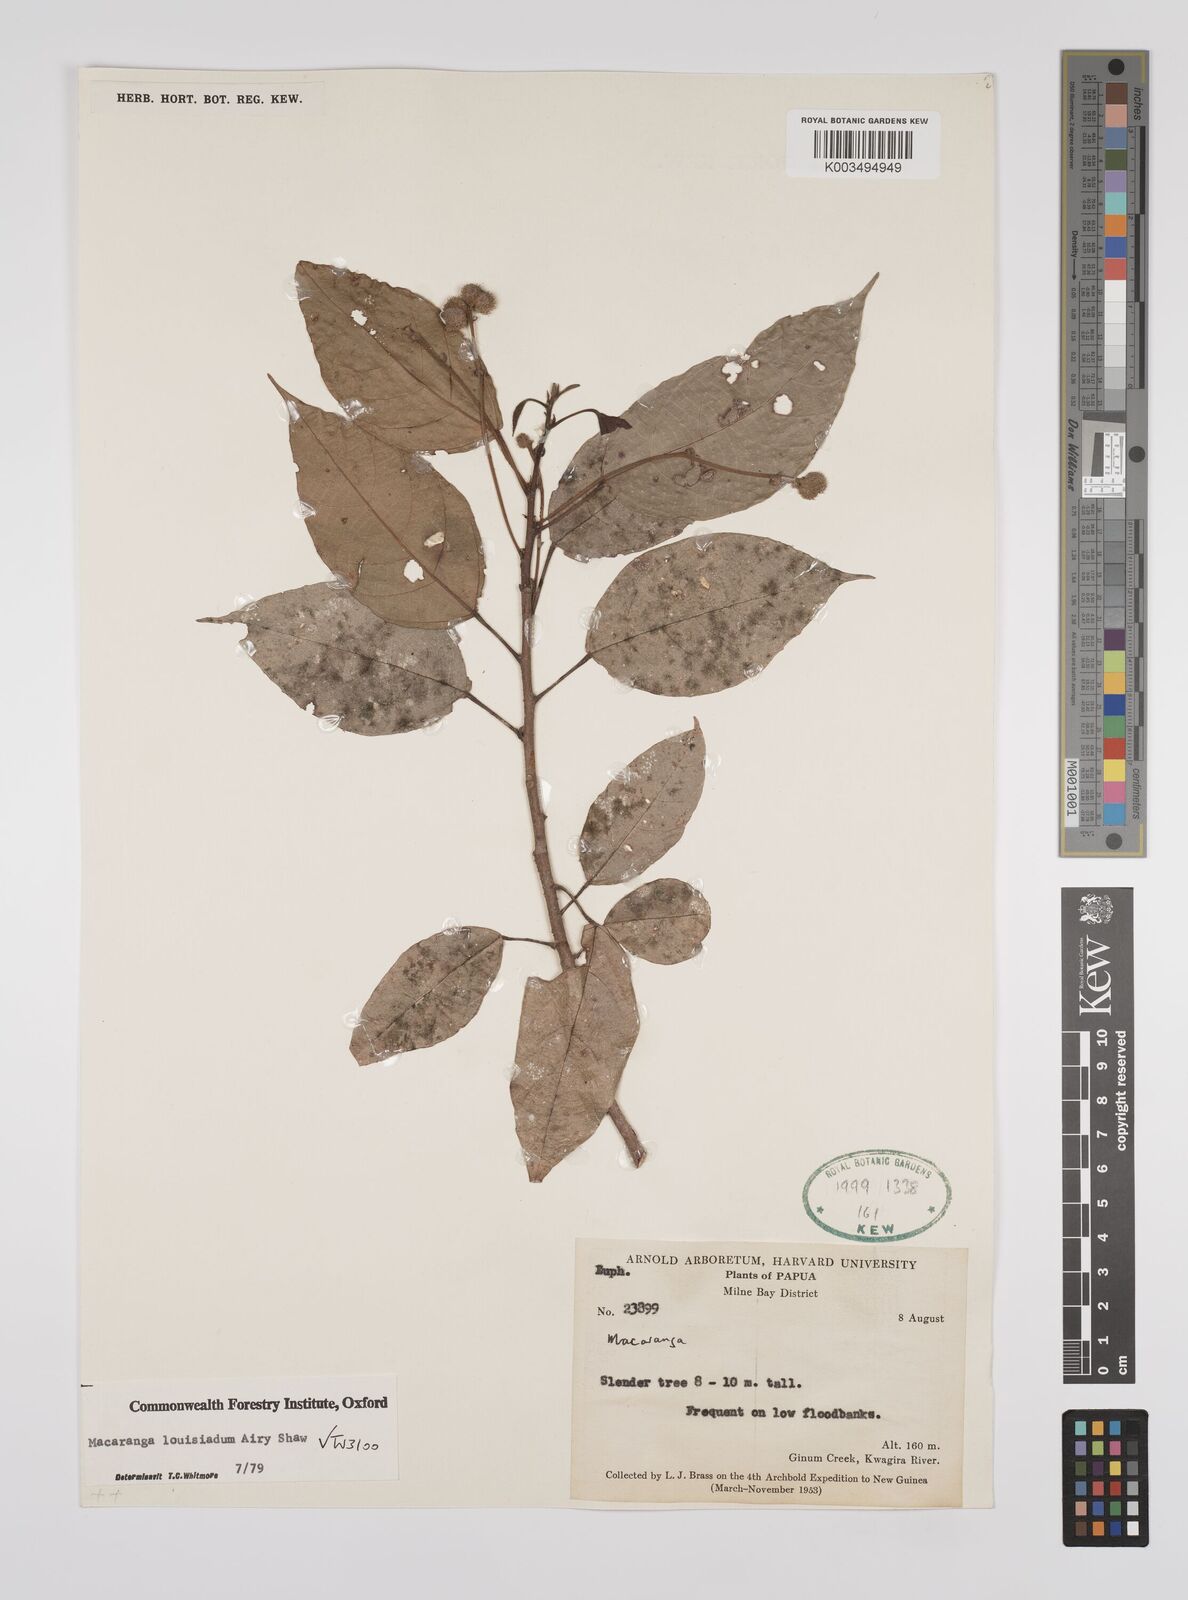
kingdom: Plantae
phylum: Tracheophyta
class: Magnoliopsida
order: Malpighiales
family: Euphorbiaceae
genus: Macaranga
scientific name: Macaranga louisiadum
